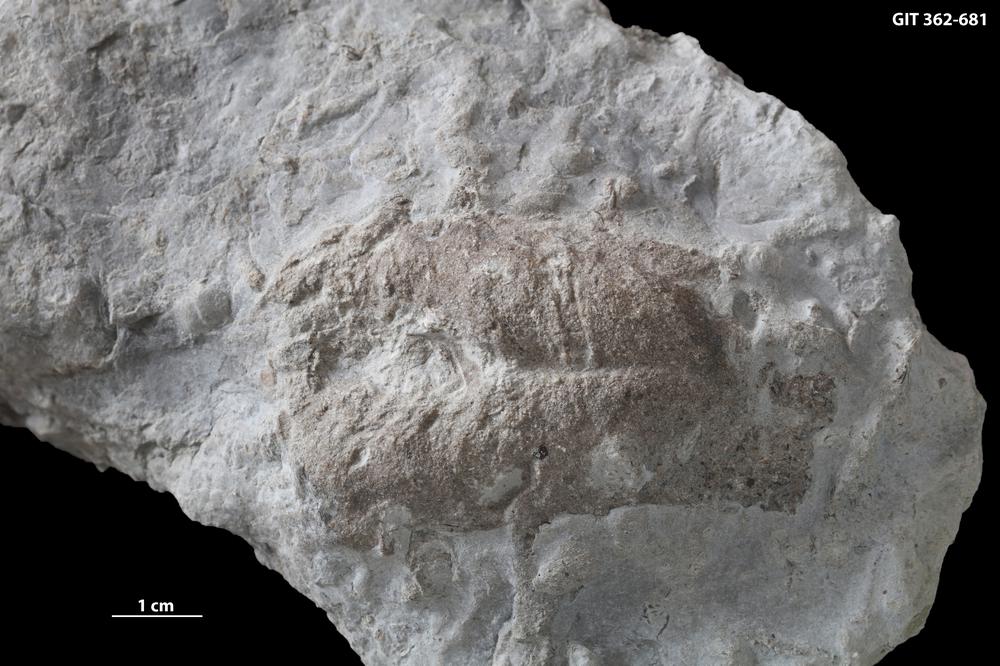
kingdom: Animalia
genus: Rusophycus
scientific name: Rusophycus
